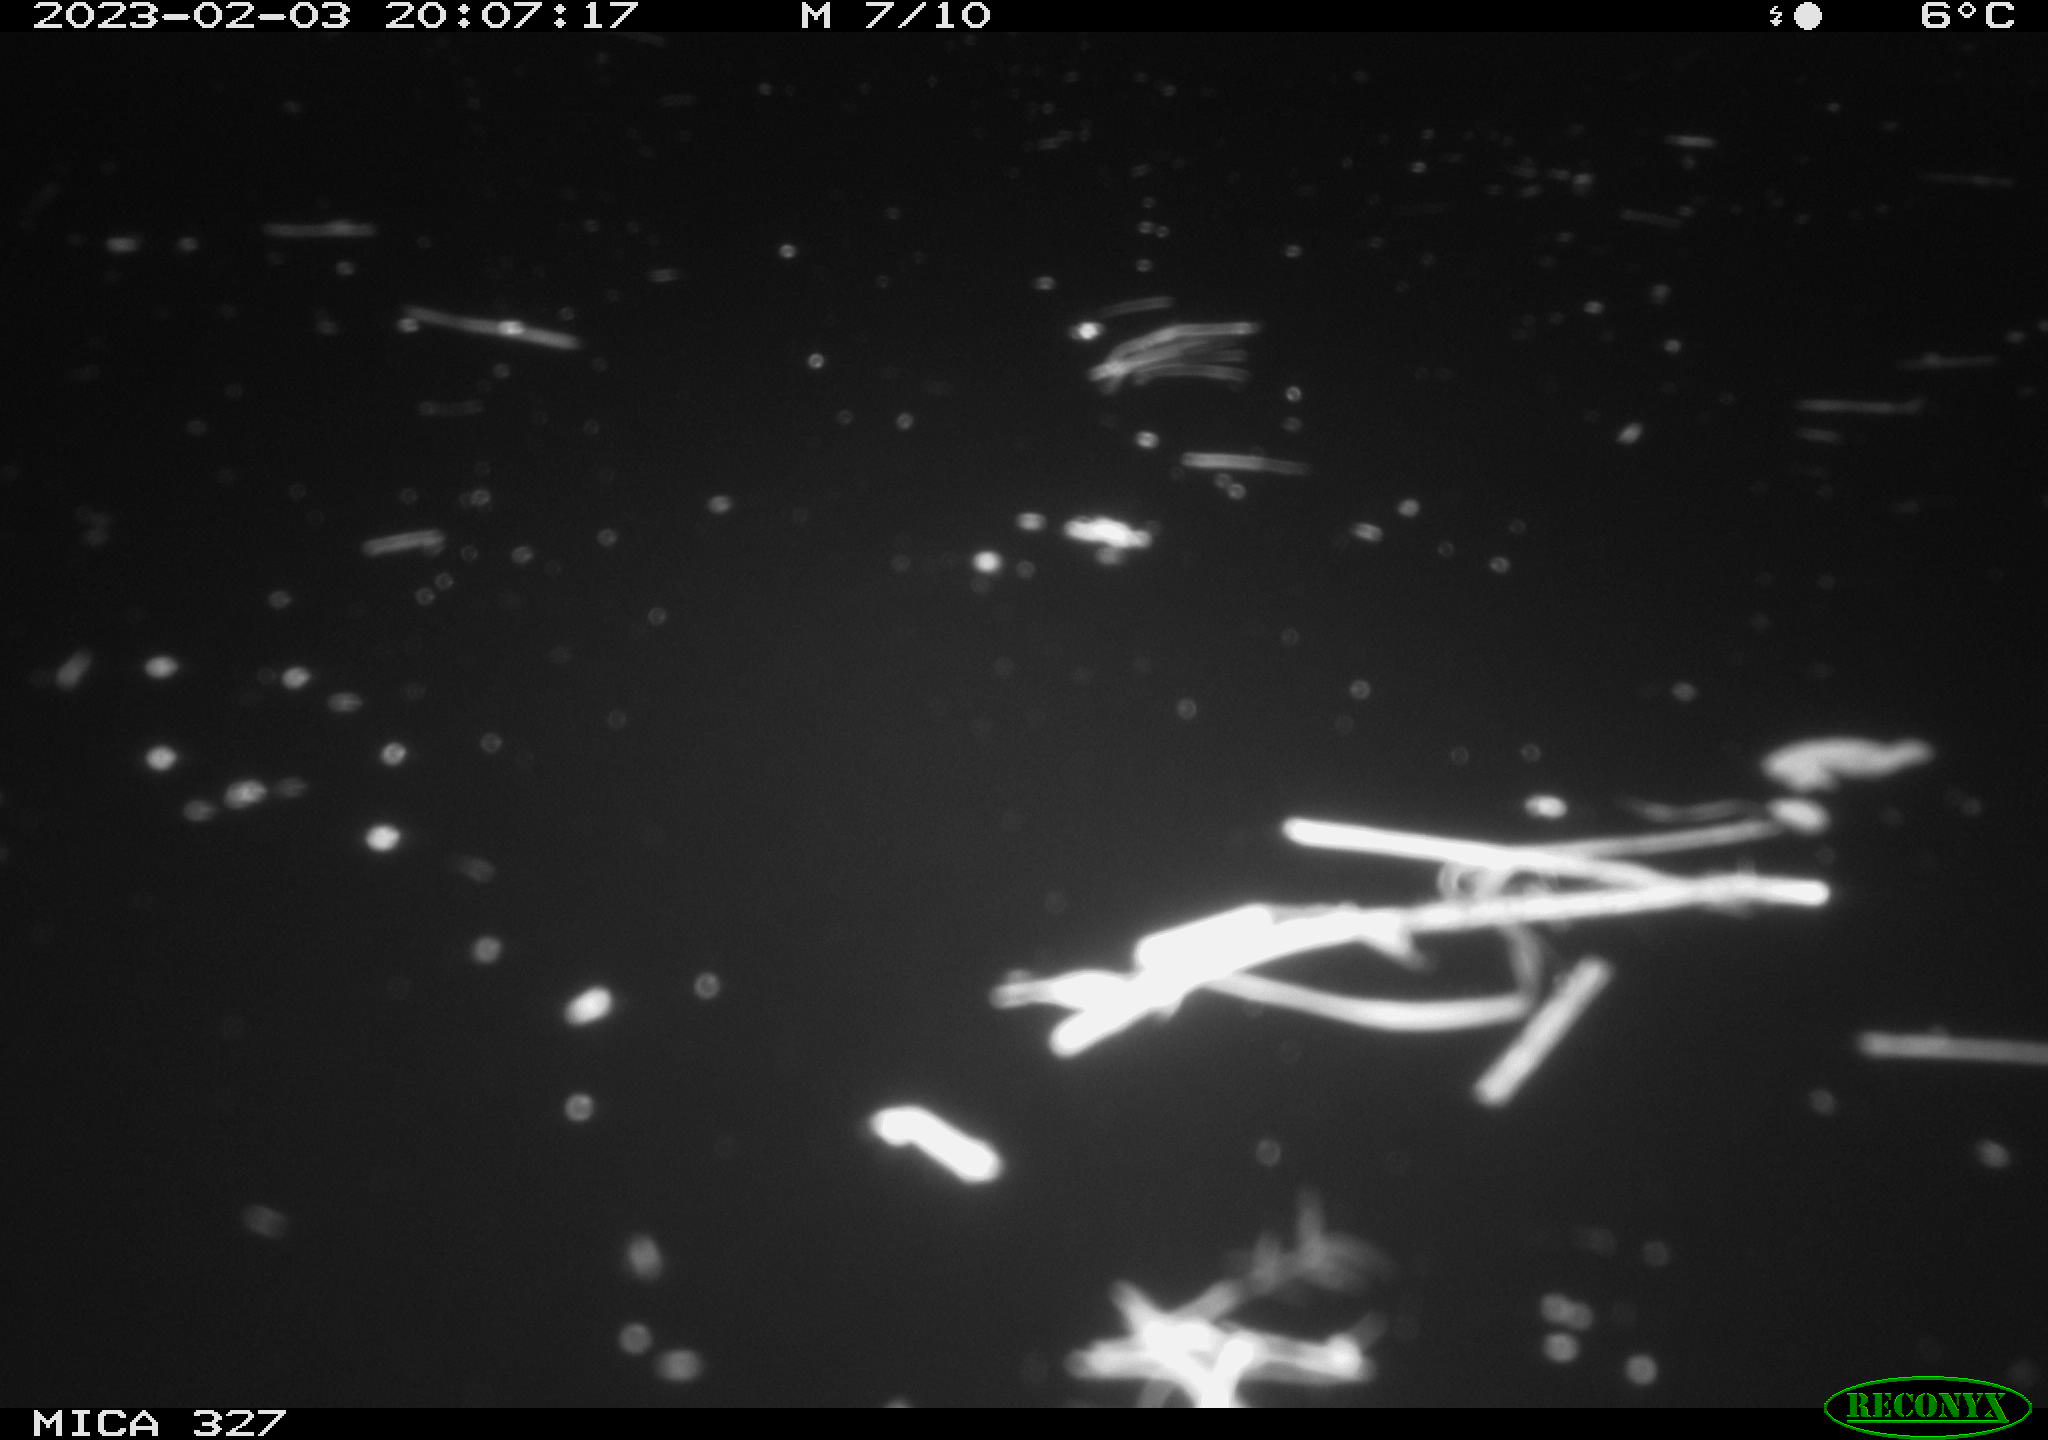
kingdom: Animalia
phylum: Chordata
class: Mammalia
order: Rodentia
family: Myocastoridae
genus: Myocastor
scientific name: Myocastor coypus
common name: Coypu
